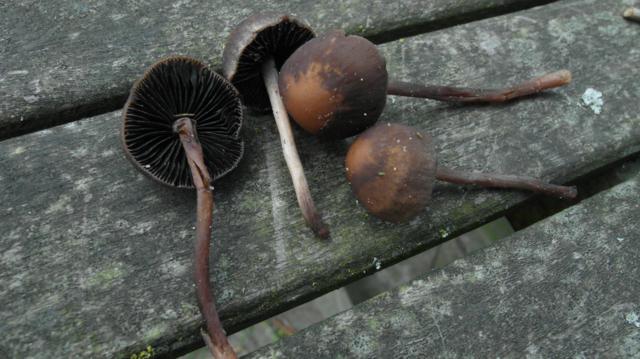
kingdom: Fungi
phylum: Basidiomycota
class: Agaricomycetes
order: Agaricales
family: Bolbitiaceae
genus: Panaeolus
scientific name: Panaeolus fimicola
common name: tidlig glanshat
